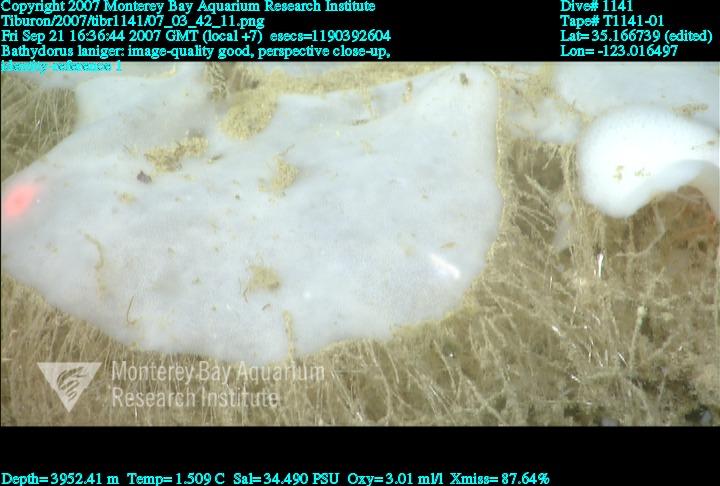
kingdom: Animalia
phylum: Porifera
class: Hexactinellida
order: Lyssacinosida
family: Rossellidae
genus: Bathydorus
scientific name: Bathydorus laniger
